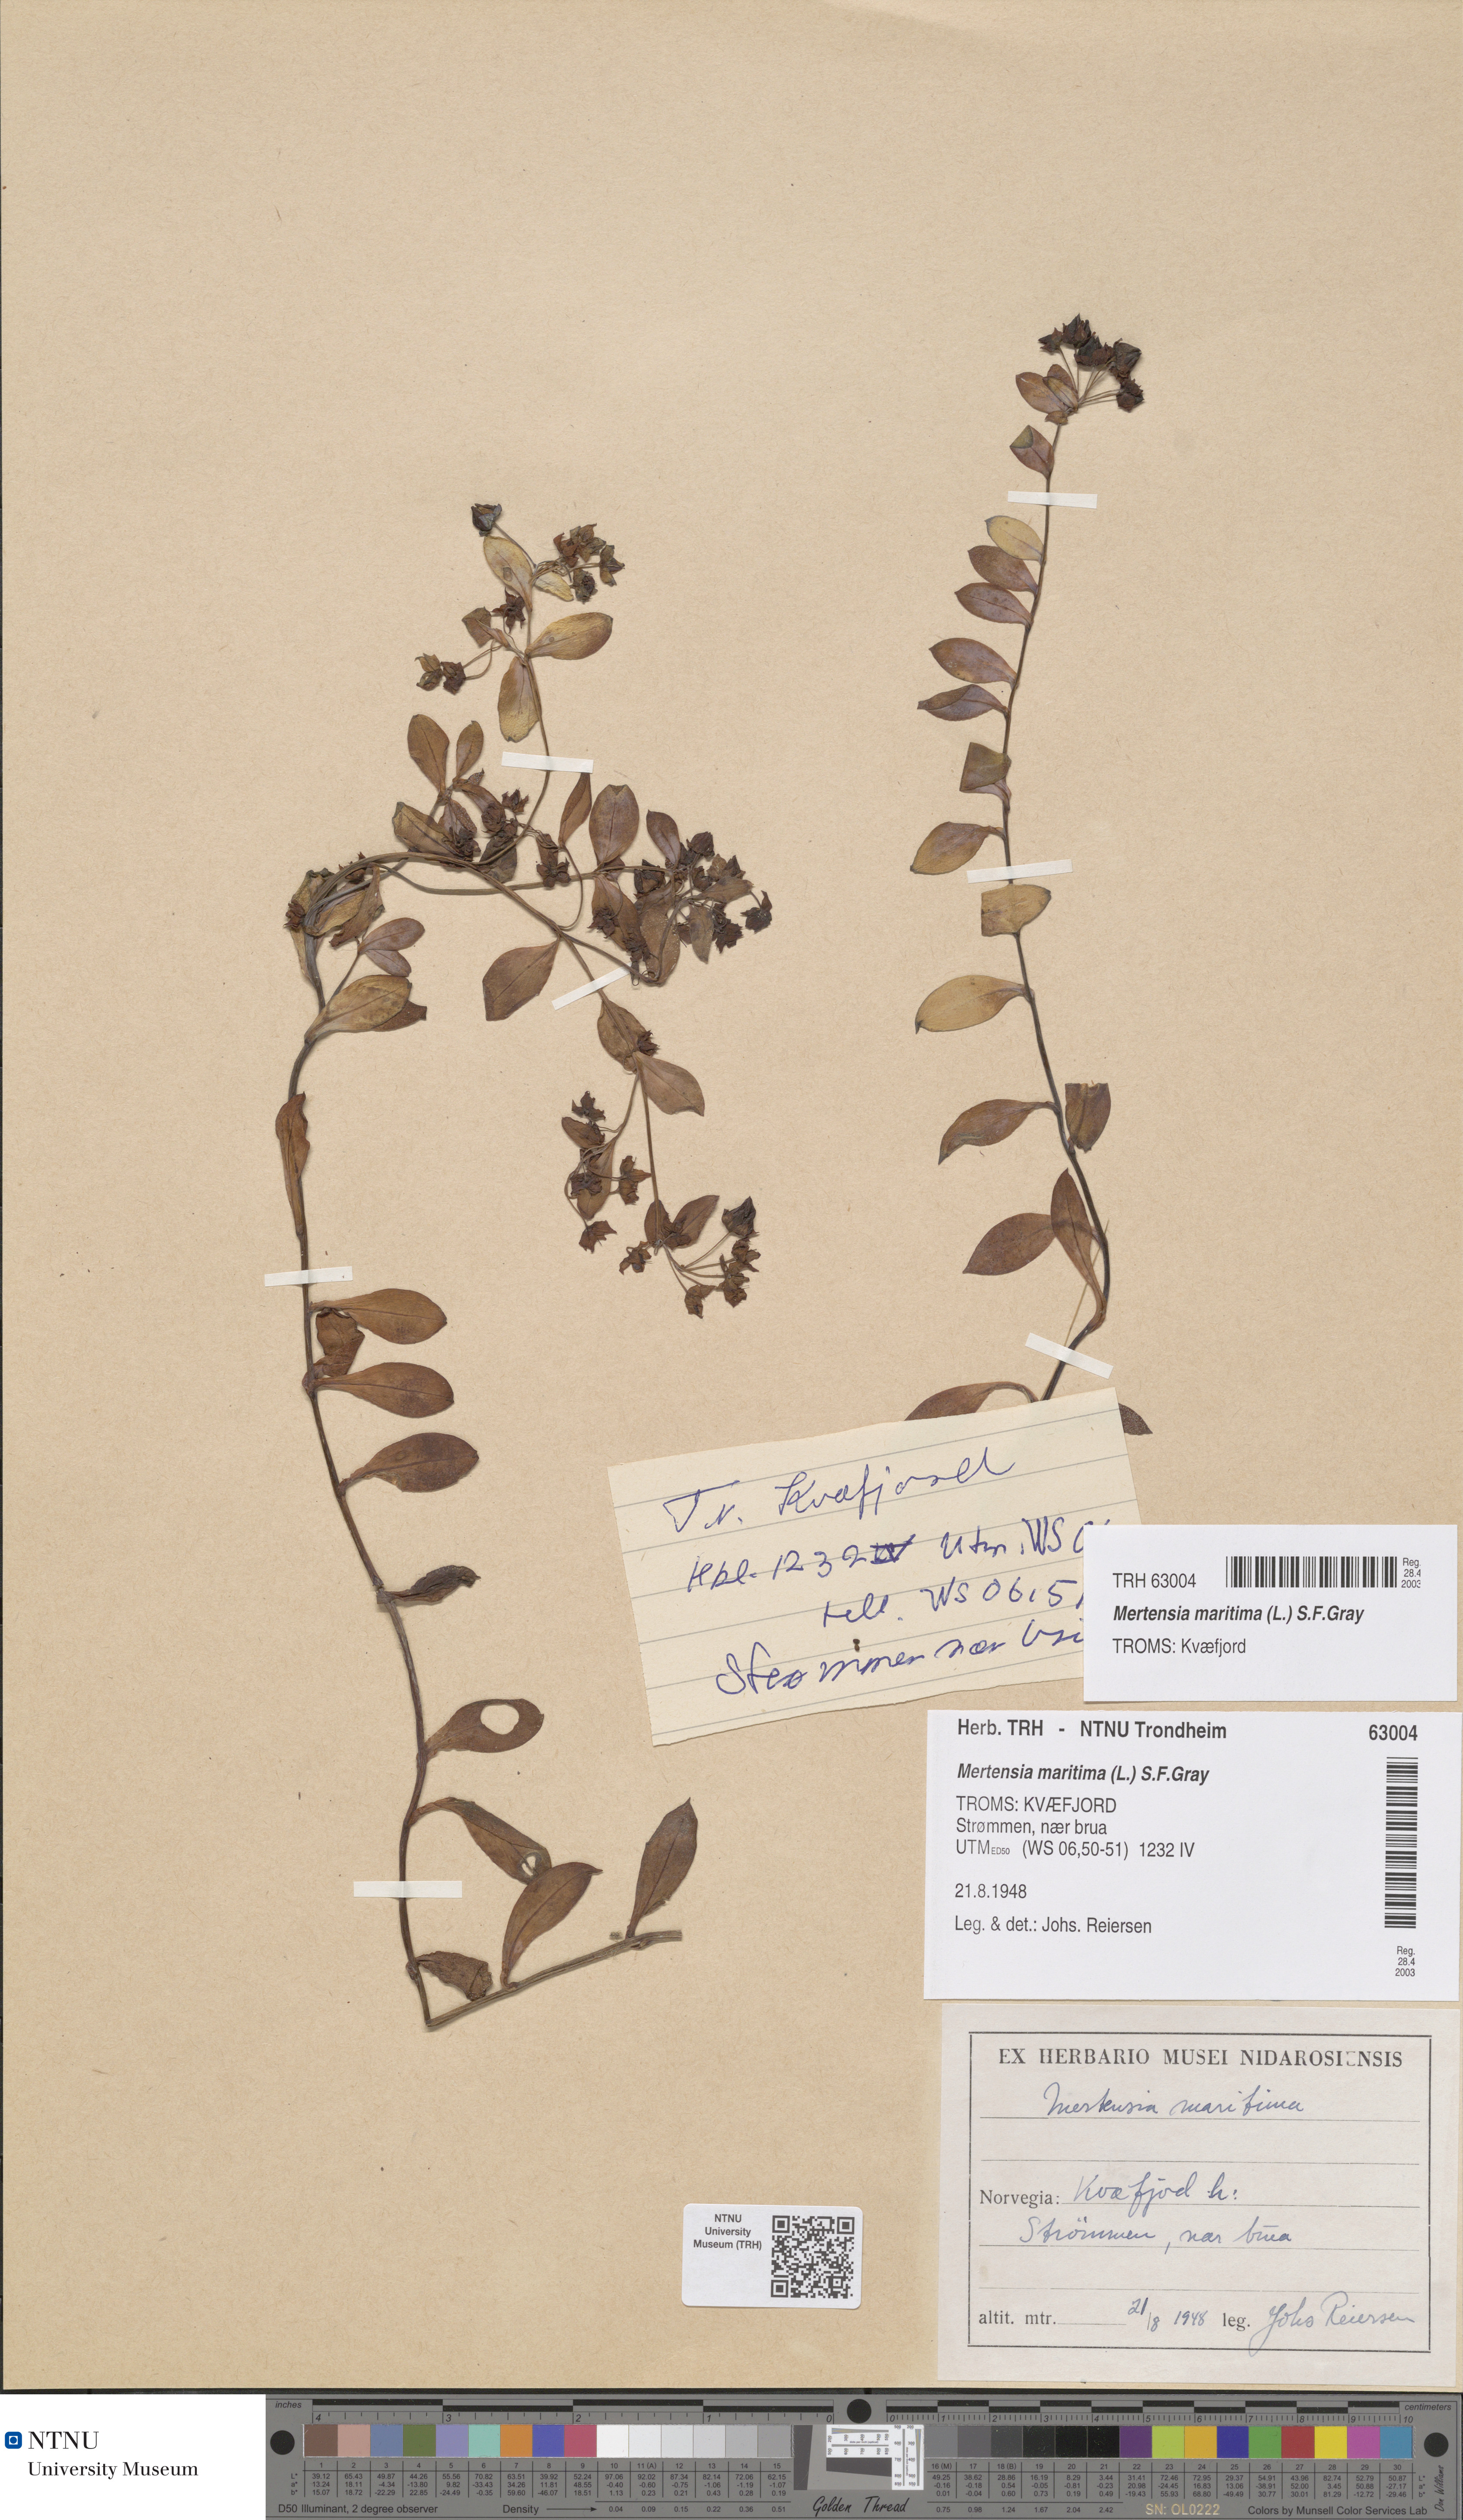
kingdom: Plantae
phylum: Tracheophyta
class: Magnoliopsida
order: Boraginales
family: Boraginaceae
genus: Mertensia
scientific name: Mertensia maritima
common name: Oysterplant
